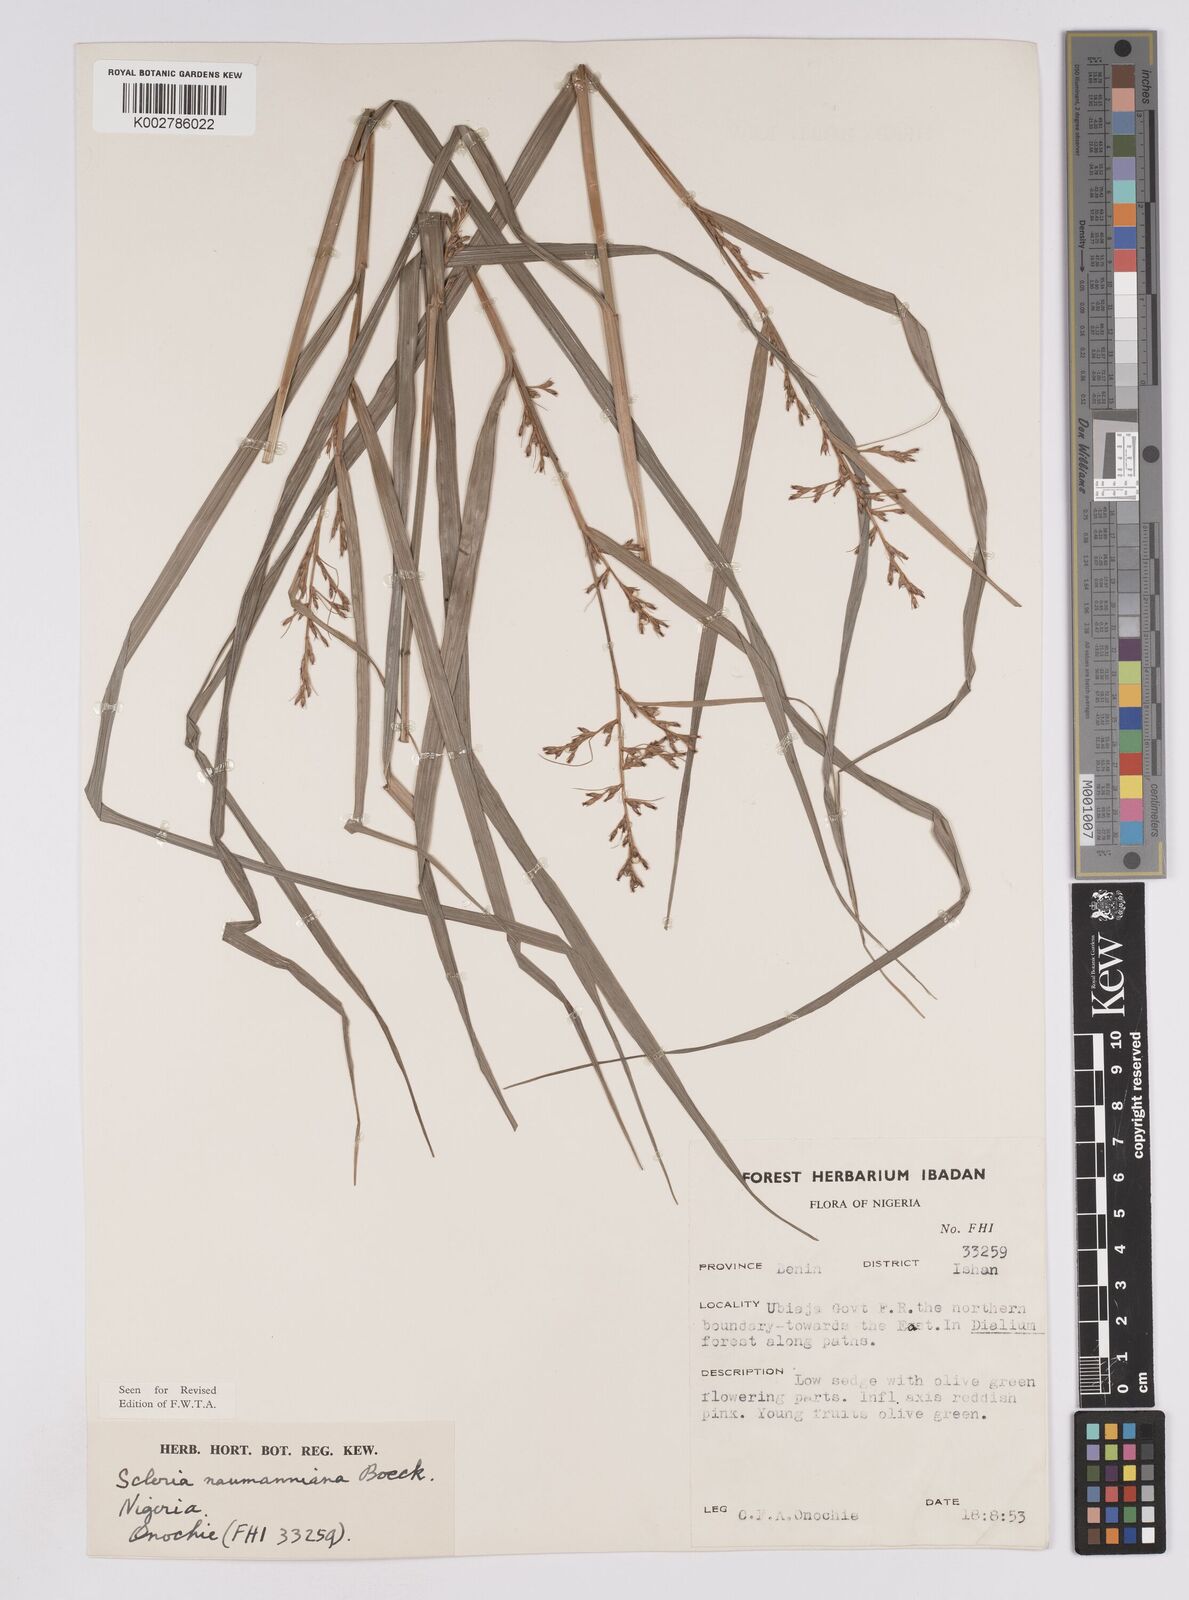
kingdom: Plantae
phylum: Tracheophyta
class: Liliopsida
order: Poales
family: Cyperaceae
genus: Scleria
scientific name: Scleria naumanniana
